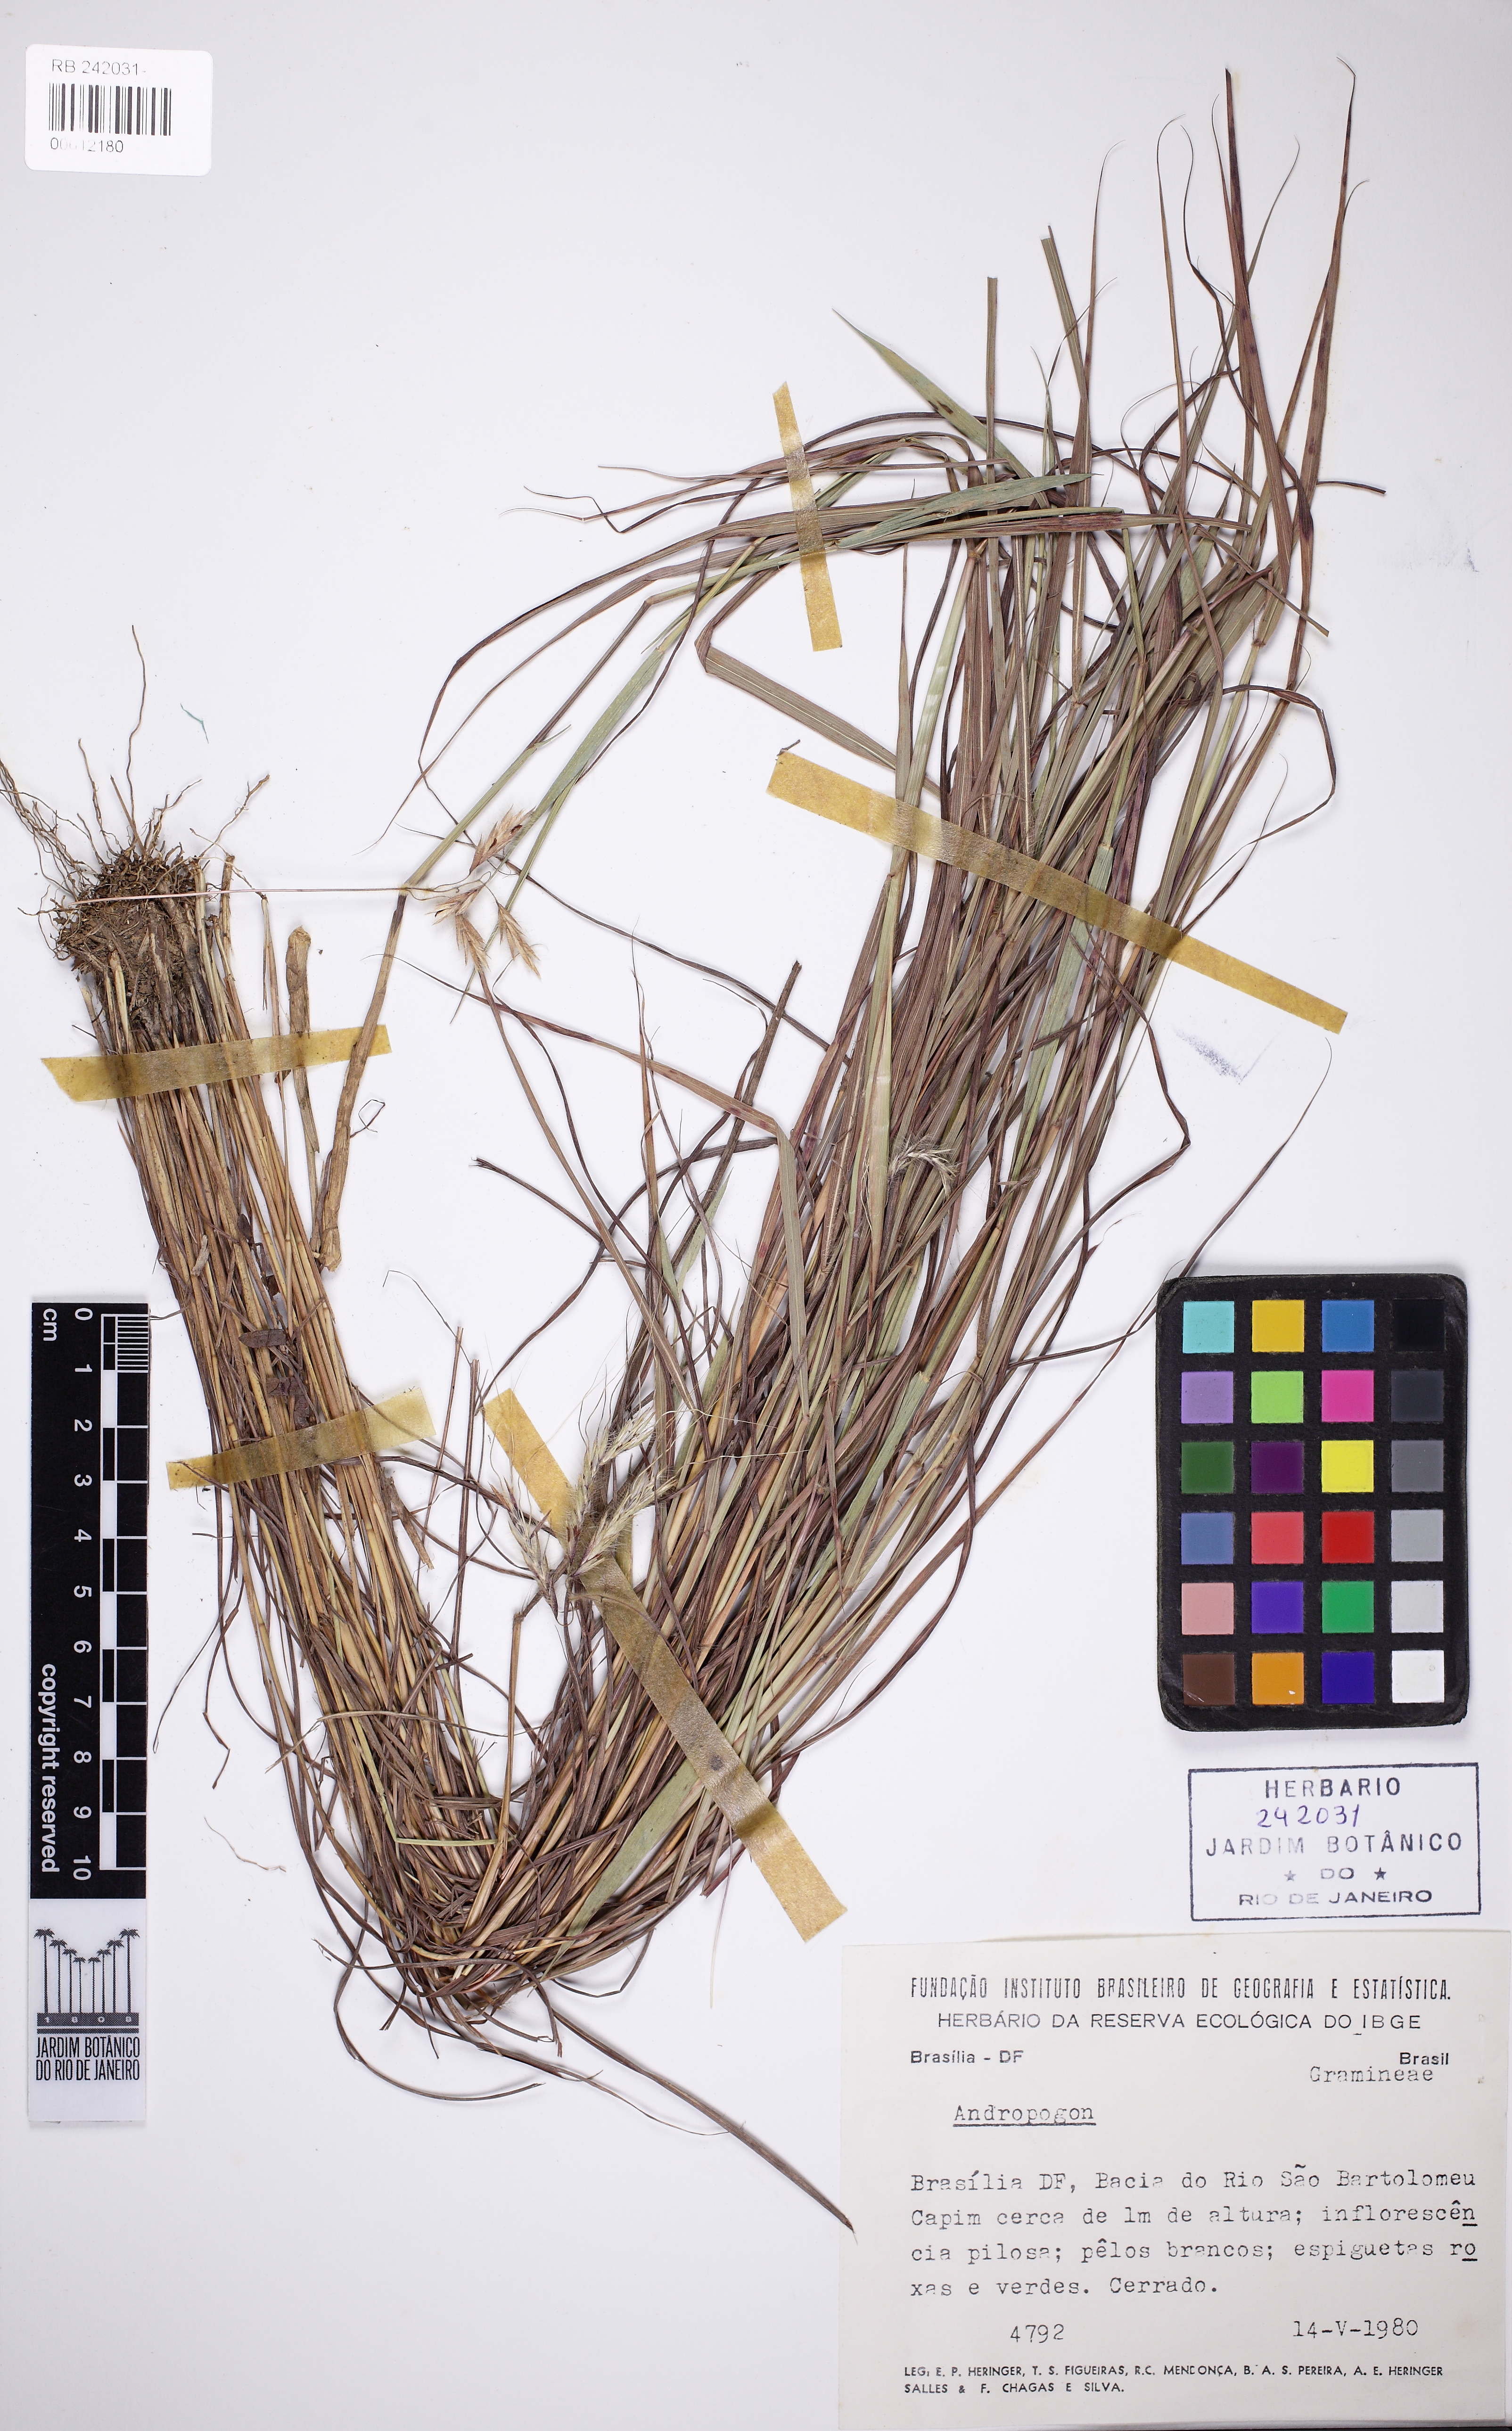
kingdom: Plantae
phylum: Tracheophyta
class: Liliopsida
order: Poales
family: Poaceae
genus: Andropogon
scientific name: Andropogon
